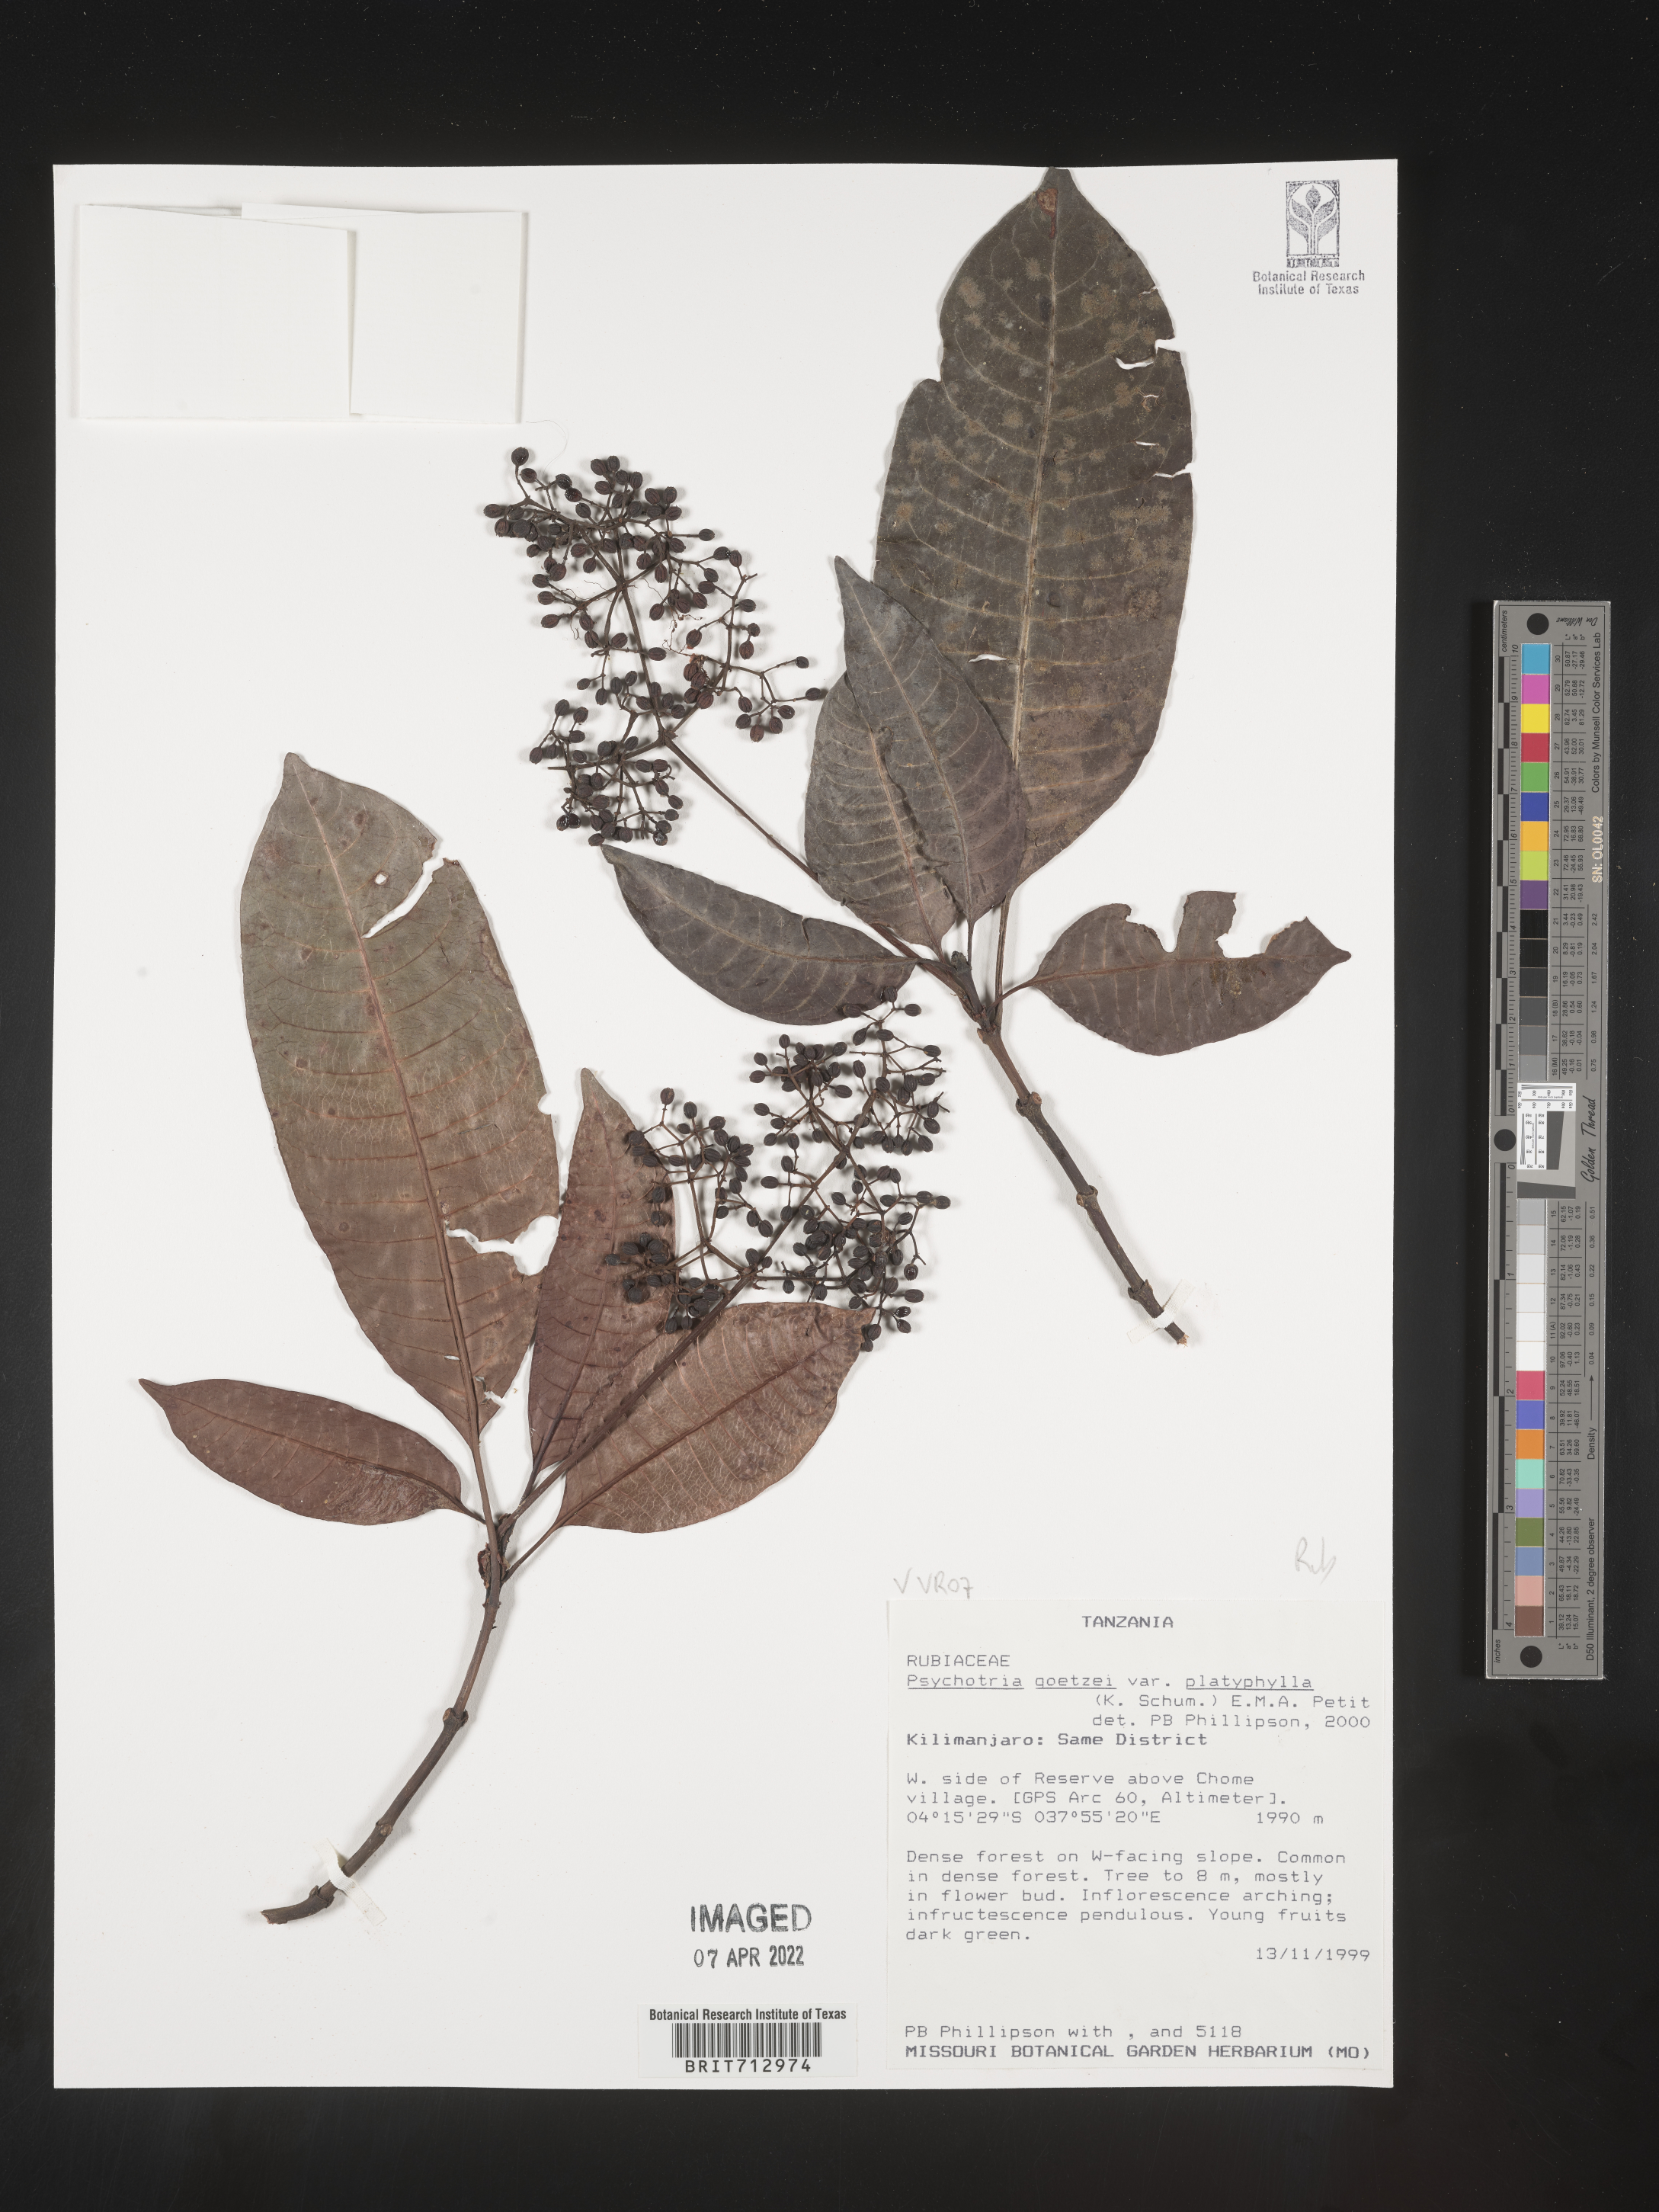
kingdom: Plantae
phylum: Tracheophyta
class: Magnoliopsida
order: Gentianales
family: Rubiaceae
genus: Psychotria
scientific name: Psychotria
